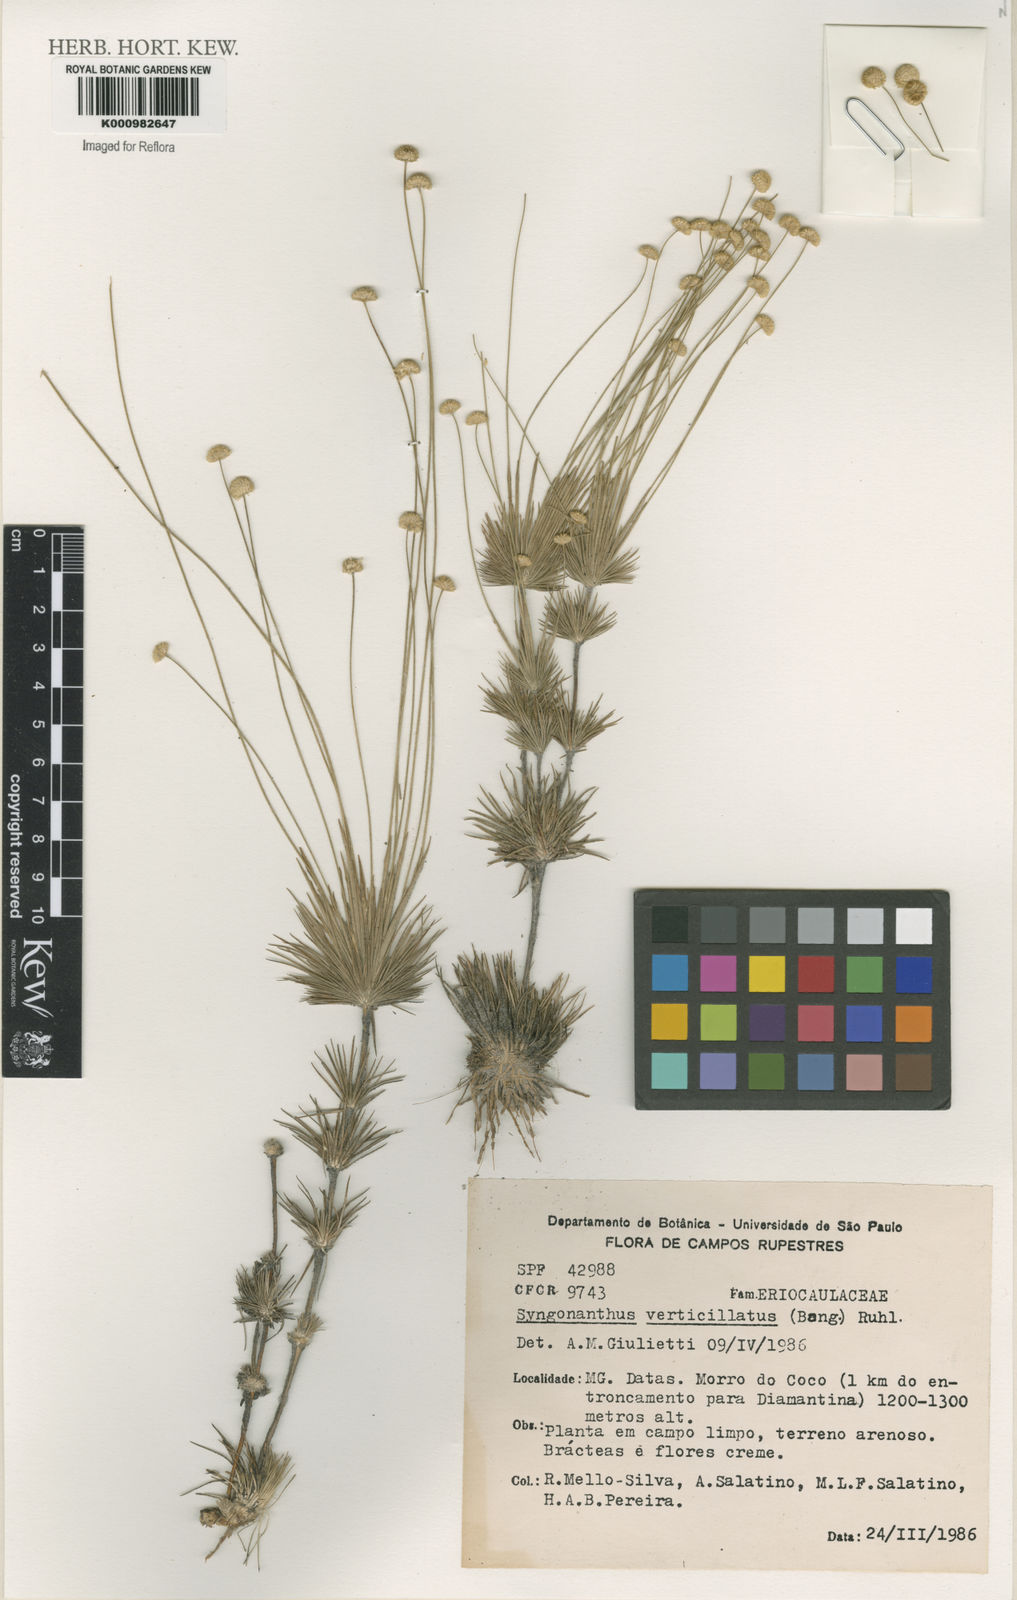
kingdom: Plantae
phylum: Tracheophyta
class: Liliopsida
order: Poales
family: Eriocaulaceae
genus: Syngonanthus
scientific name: Syngonanthus verticillatus
